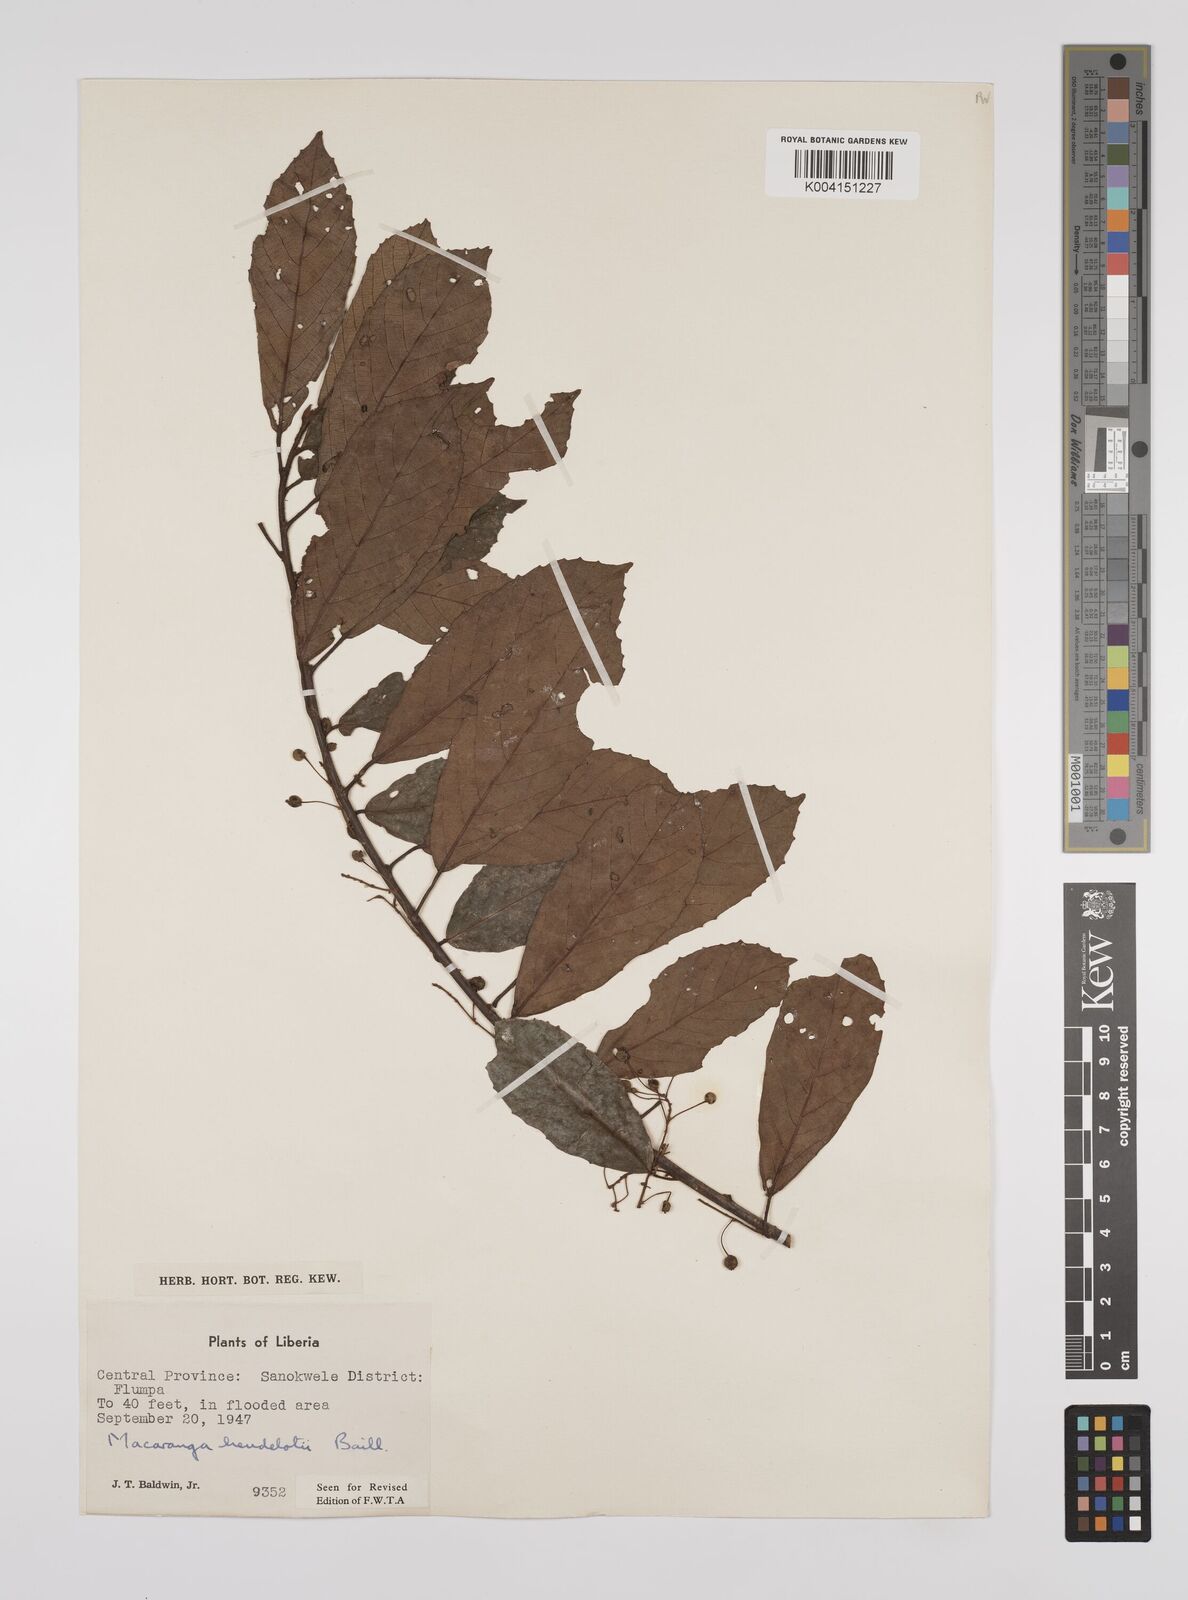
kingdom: Plantae
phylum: Tracheophyta
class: Magnoliopsida
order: Malpighiales
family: Euphorbiaceae
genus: Macaranga
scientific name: Macaranga heudelotii
